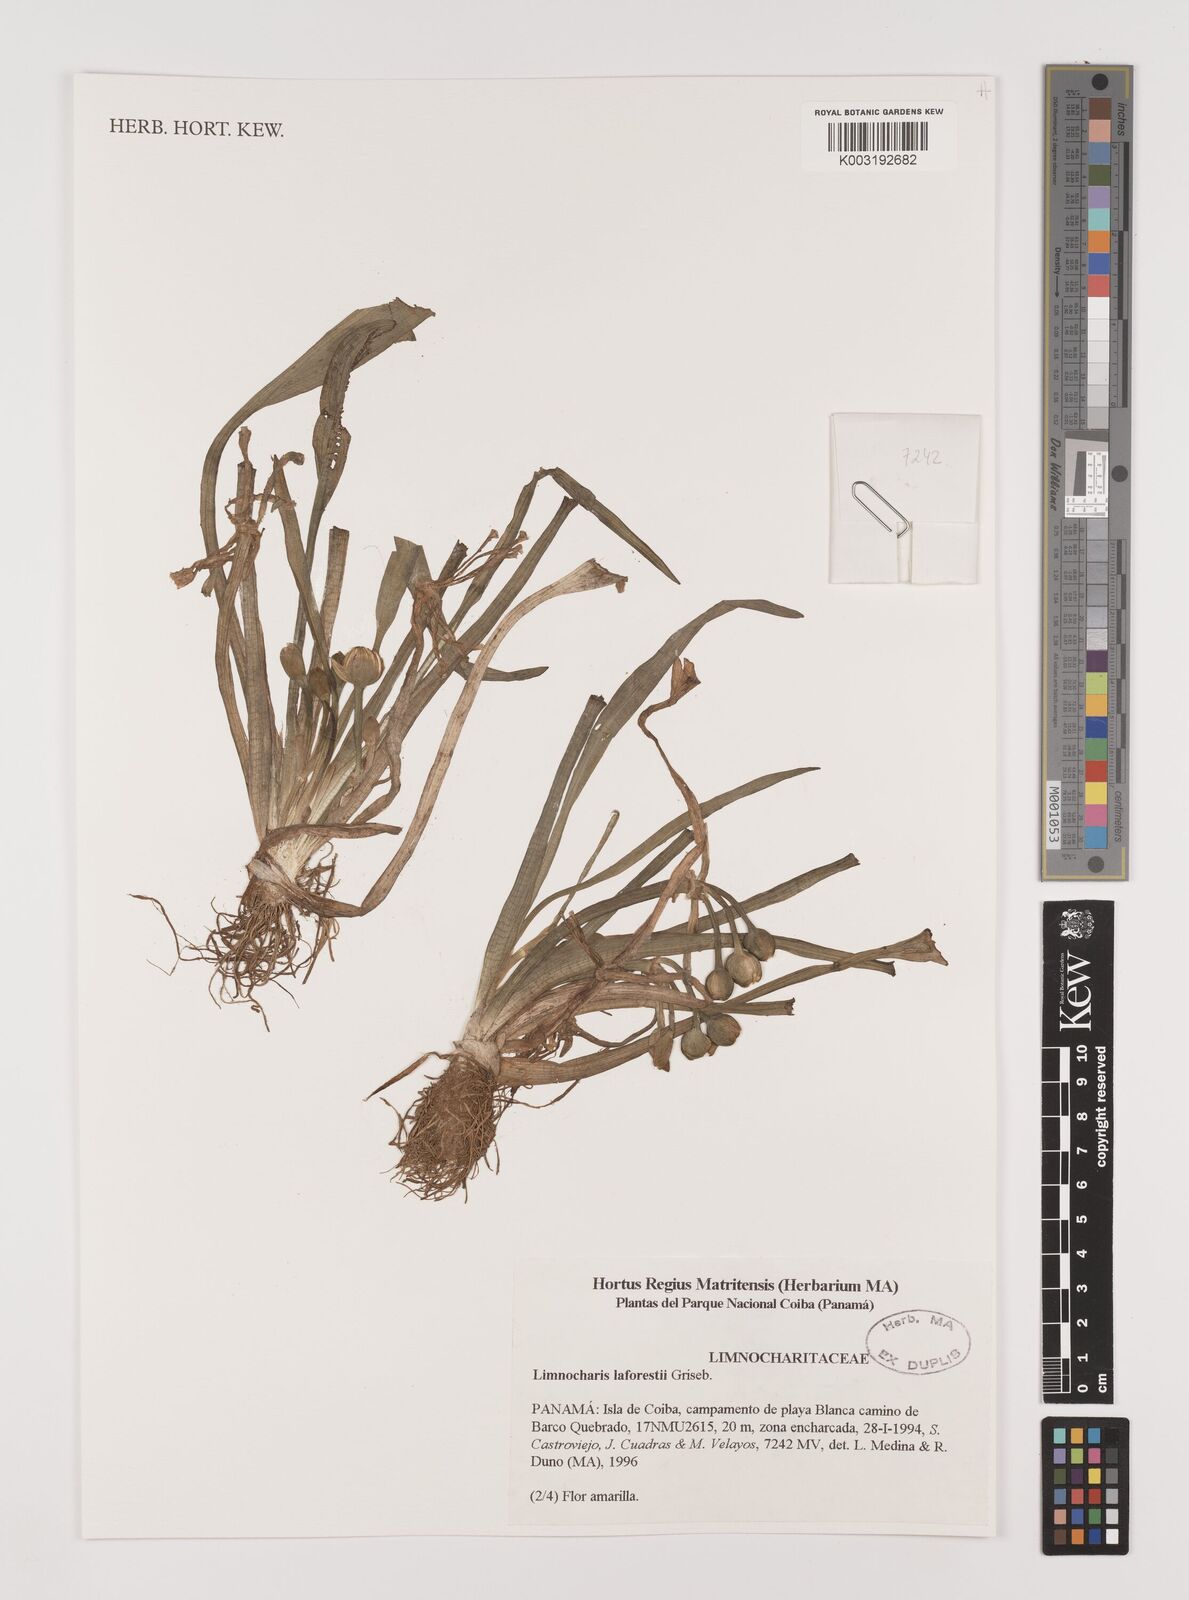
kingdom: Plantae
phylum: Tracheophyta
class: Liliopsida
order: Alismatales
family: Alismataceae
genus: Limnocharis
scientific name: Limnocharis laforestii
